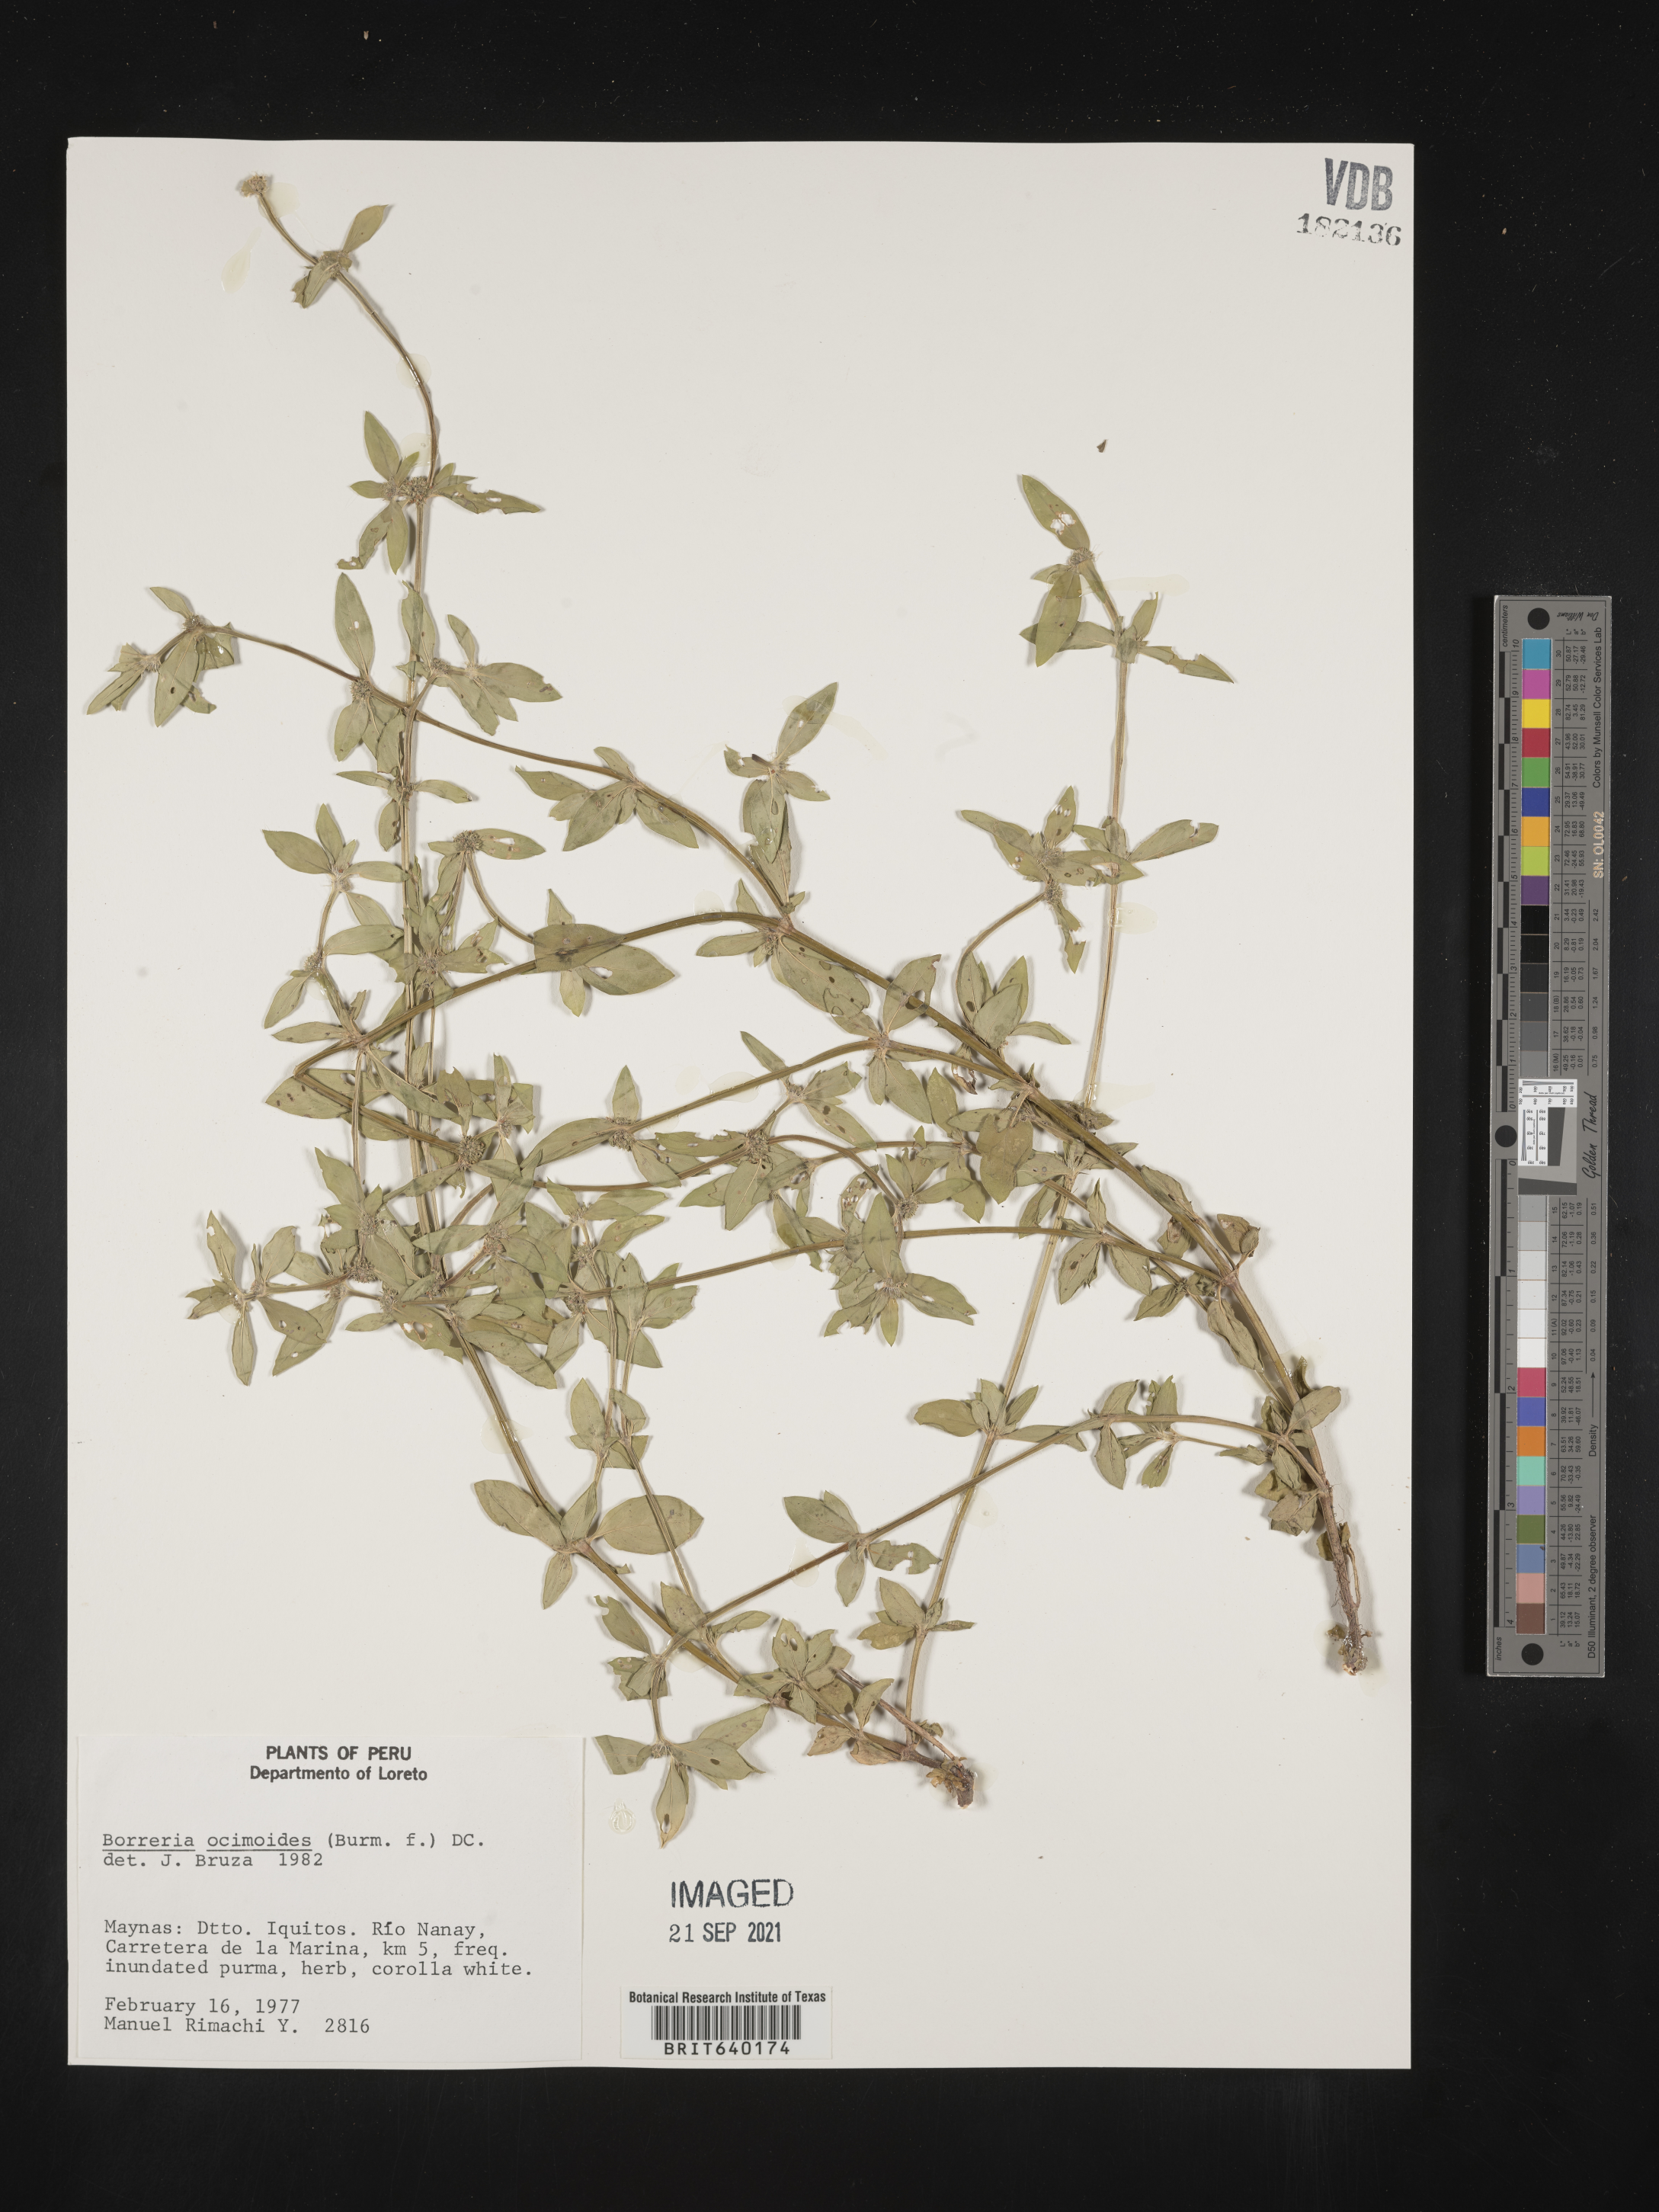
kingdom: Plantae
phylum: Tracheophyta
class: Magnoliopsida
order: Gentianales
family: Rubiaceae
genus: Spermacoce
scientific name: Spermacoce
